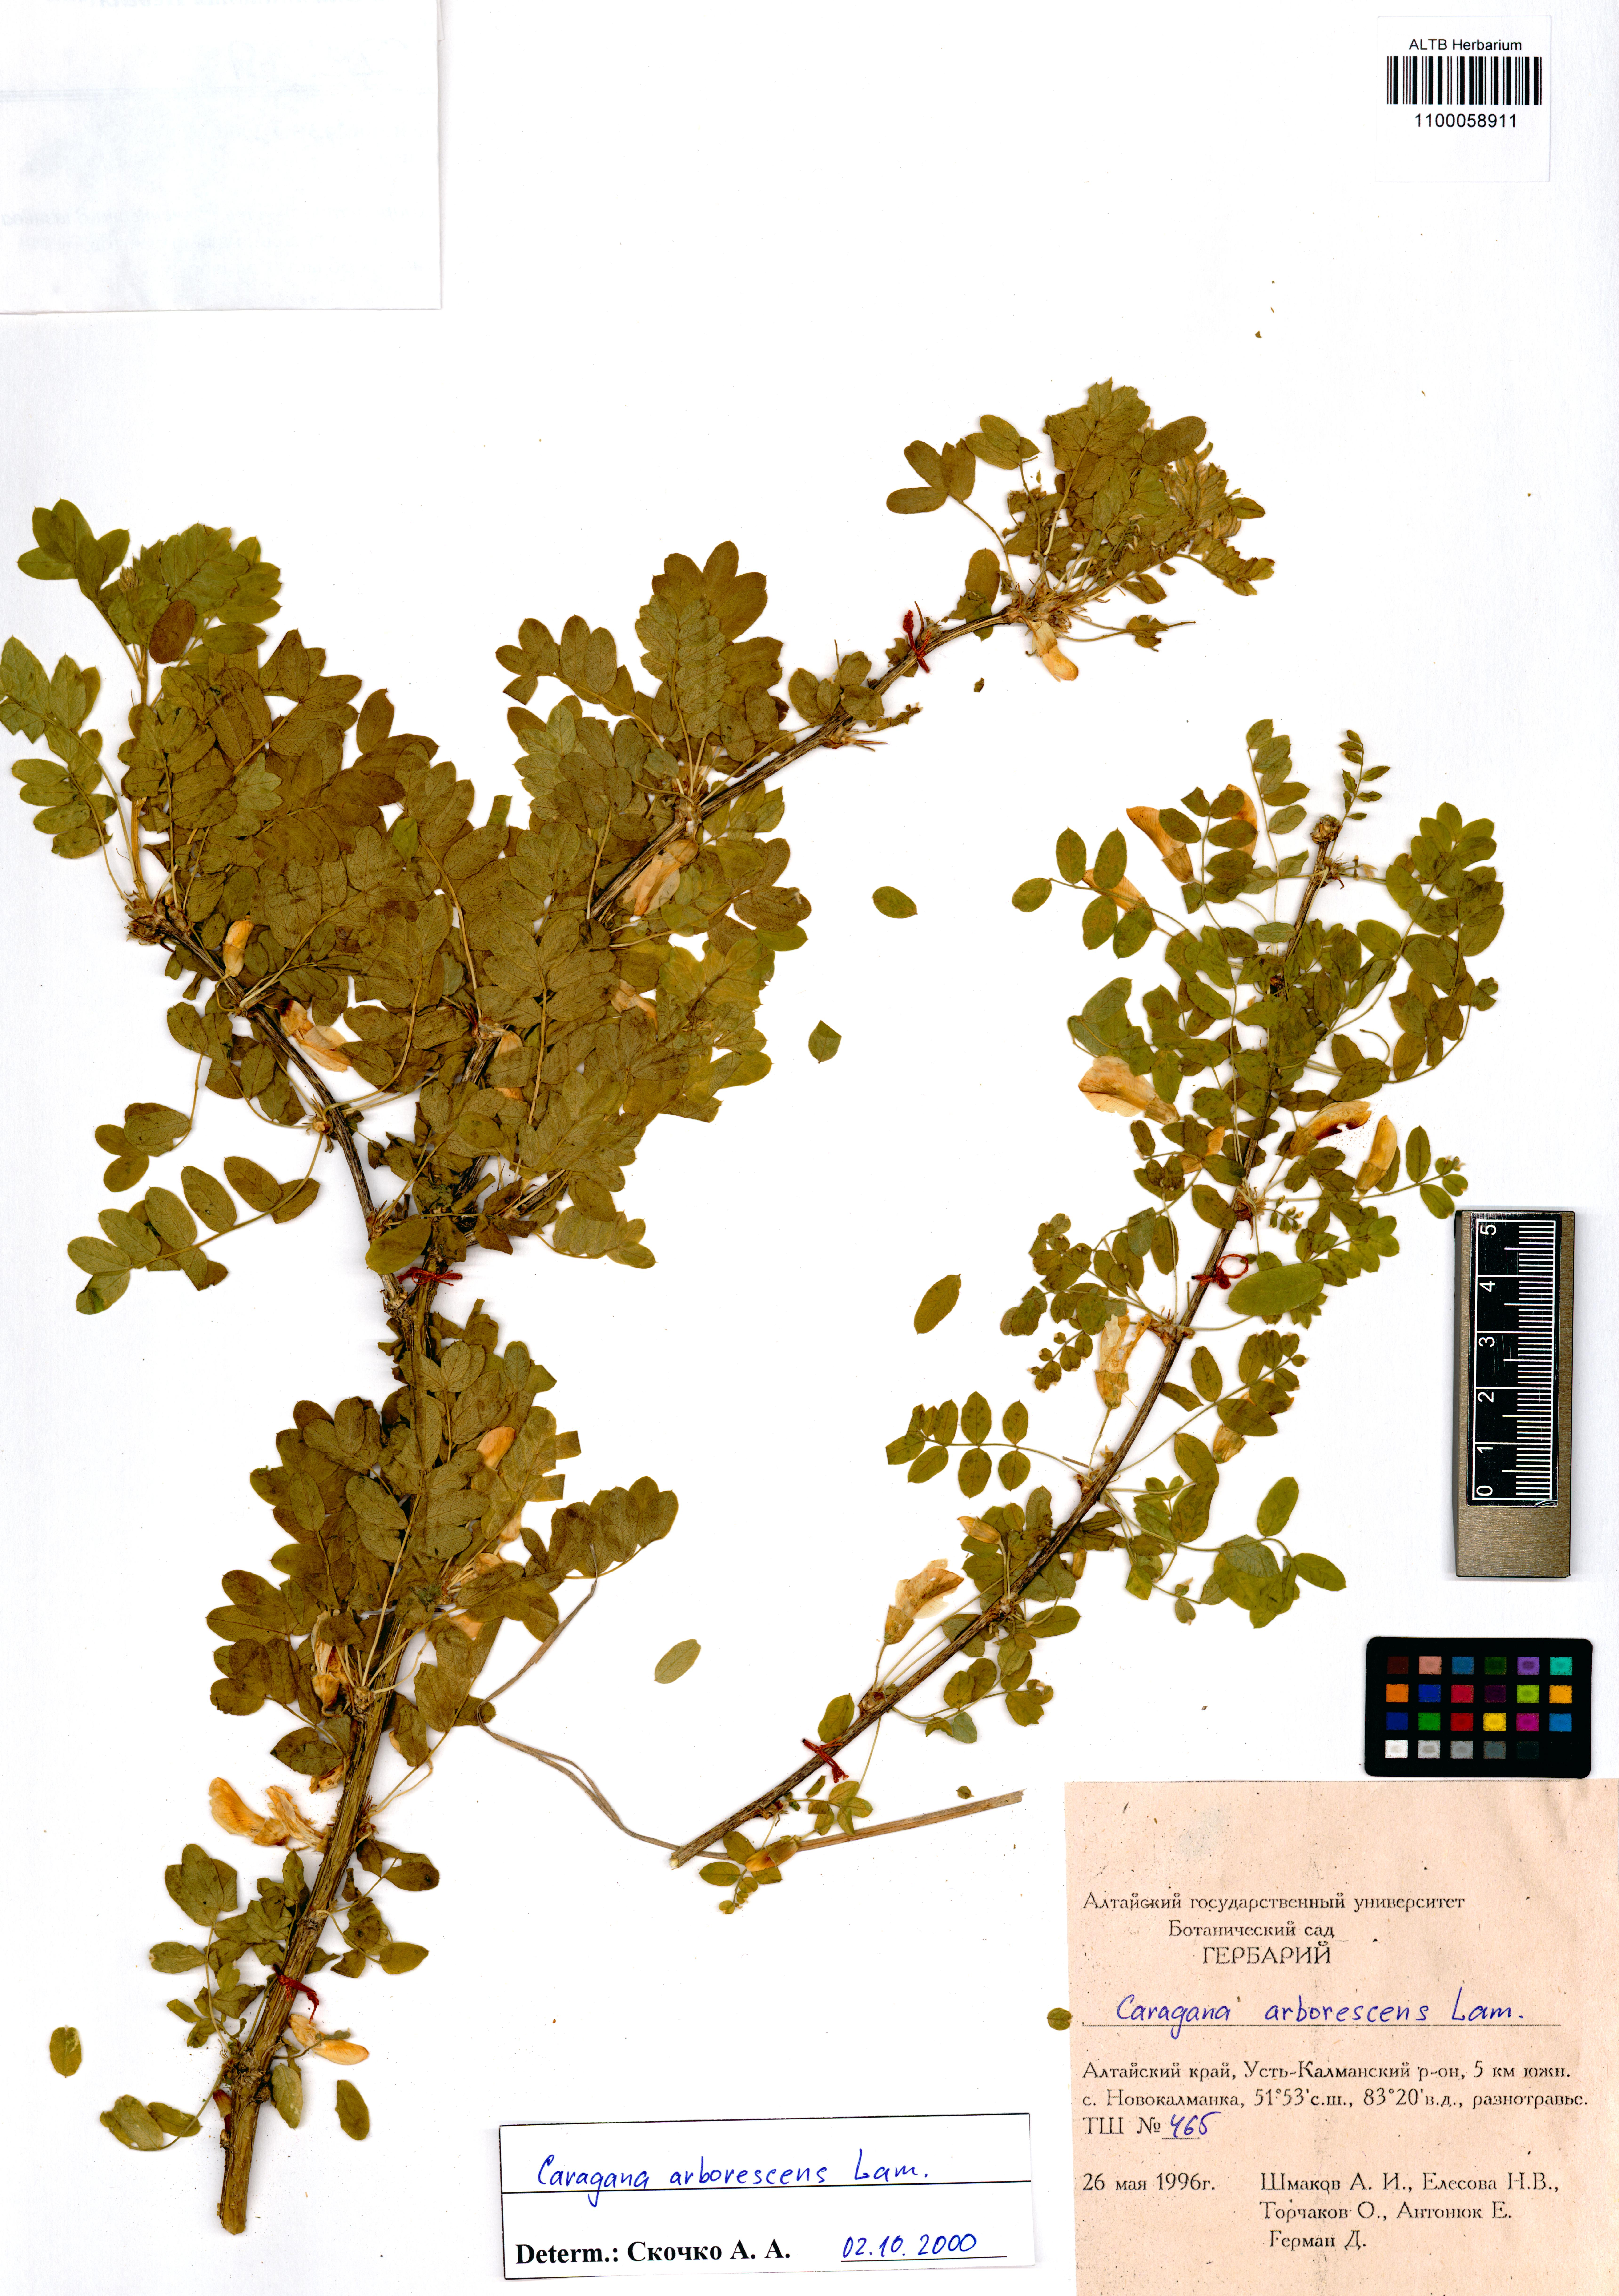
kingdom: Plantae
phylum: Tracheophyta
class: Magnoliopsida
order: Fabales
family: Fabaceae
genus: Caragana
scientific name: Caragana arborescens
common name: Siberian peashrub
